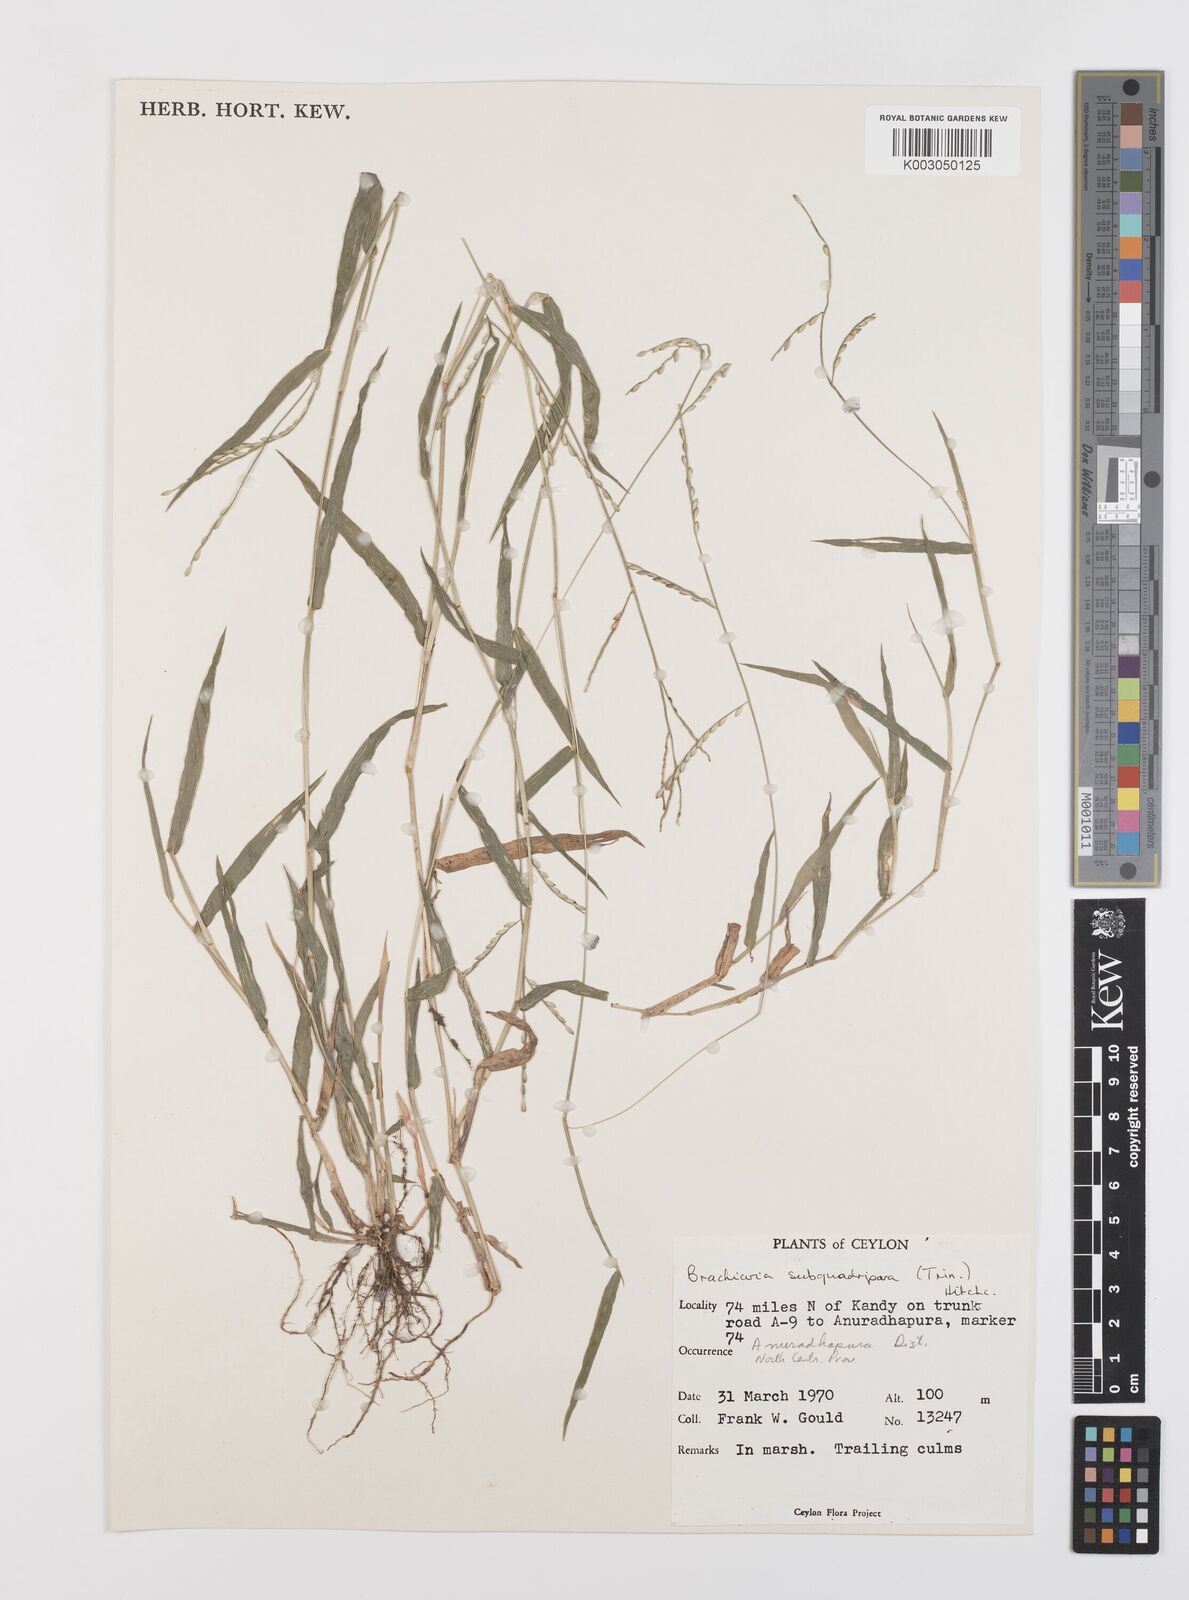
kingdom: Plantae
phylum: Tracheophyta
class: Liliopsida
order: Poales
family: Poaceae
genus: Urochloa
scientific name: Urochloa subquadripara
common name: Armgrass millet
